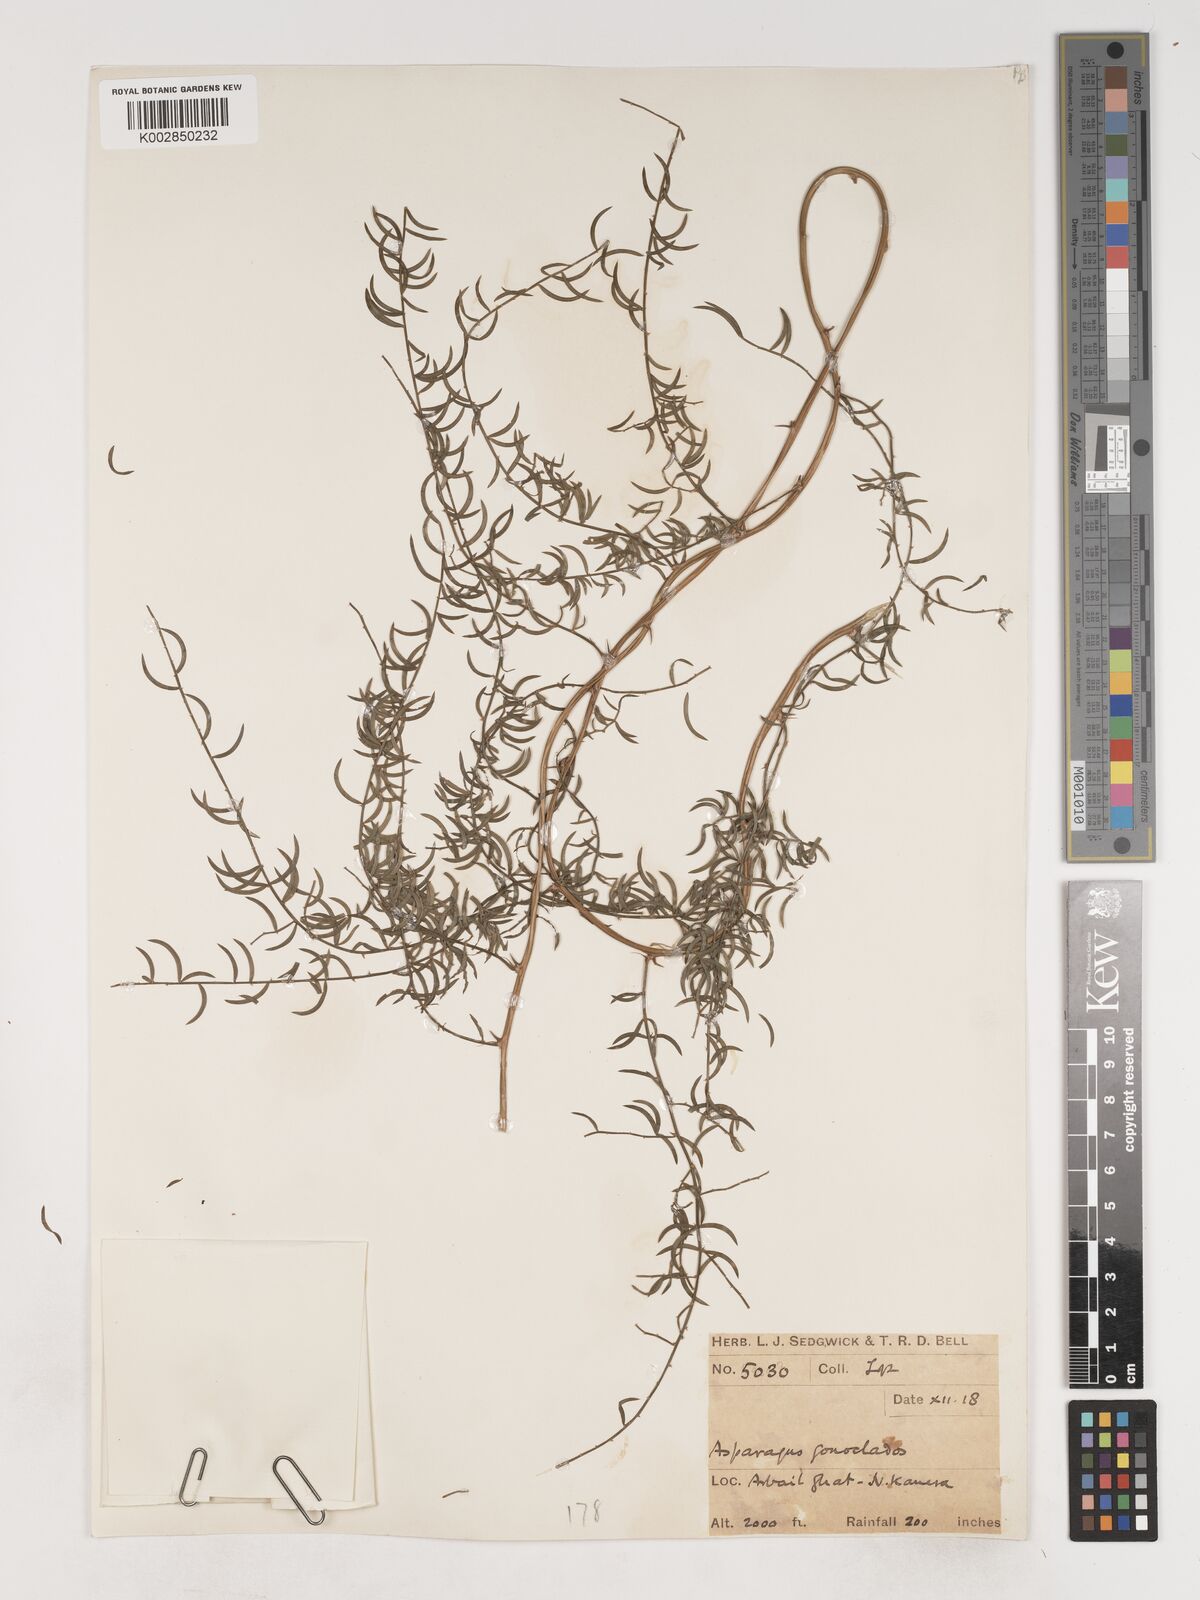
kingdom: Plantae
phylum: Tracheophyta
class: Liliopsida
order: Asparagales
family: Asparagaceae
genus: Asparagus
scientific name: Asparagus gonoclados
